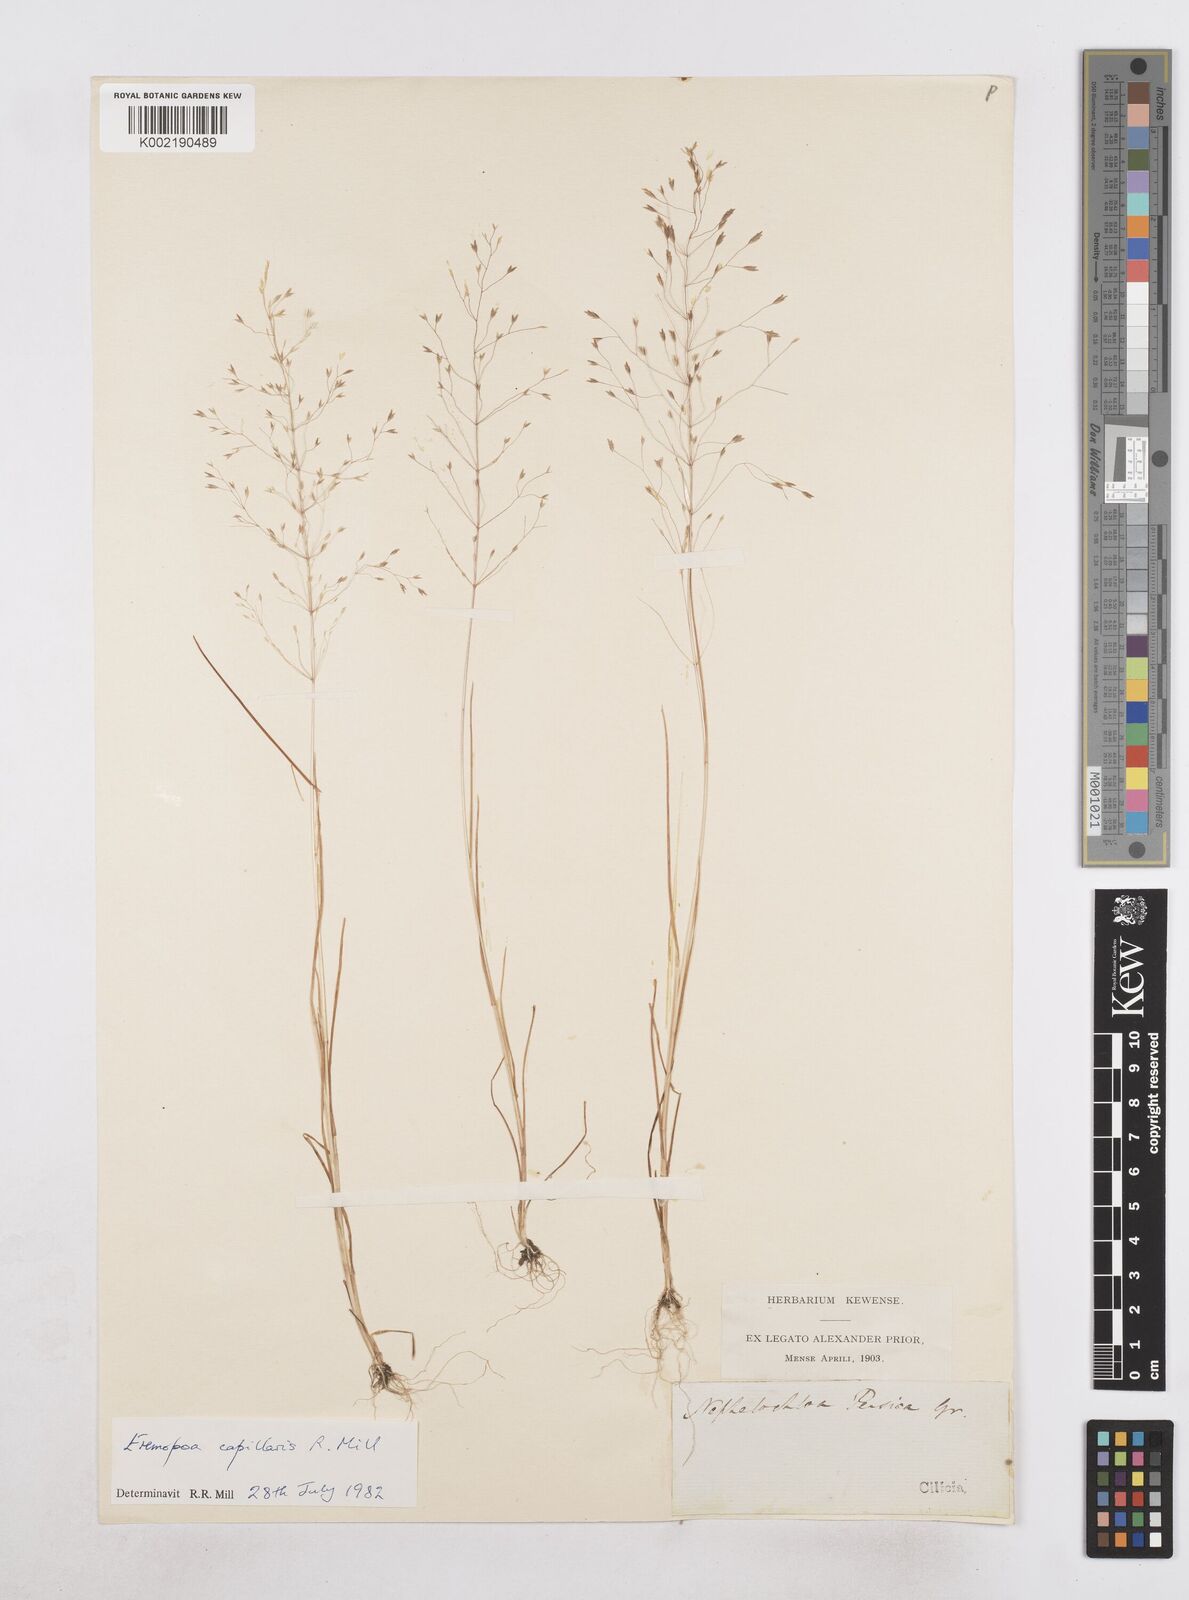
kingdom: Plantae
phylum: Tracheophyta
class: Liliopsida
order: Poales
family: Poaceae
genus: Poa
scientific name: Poa millii
